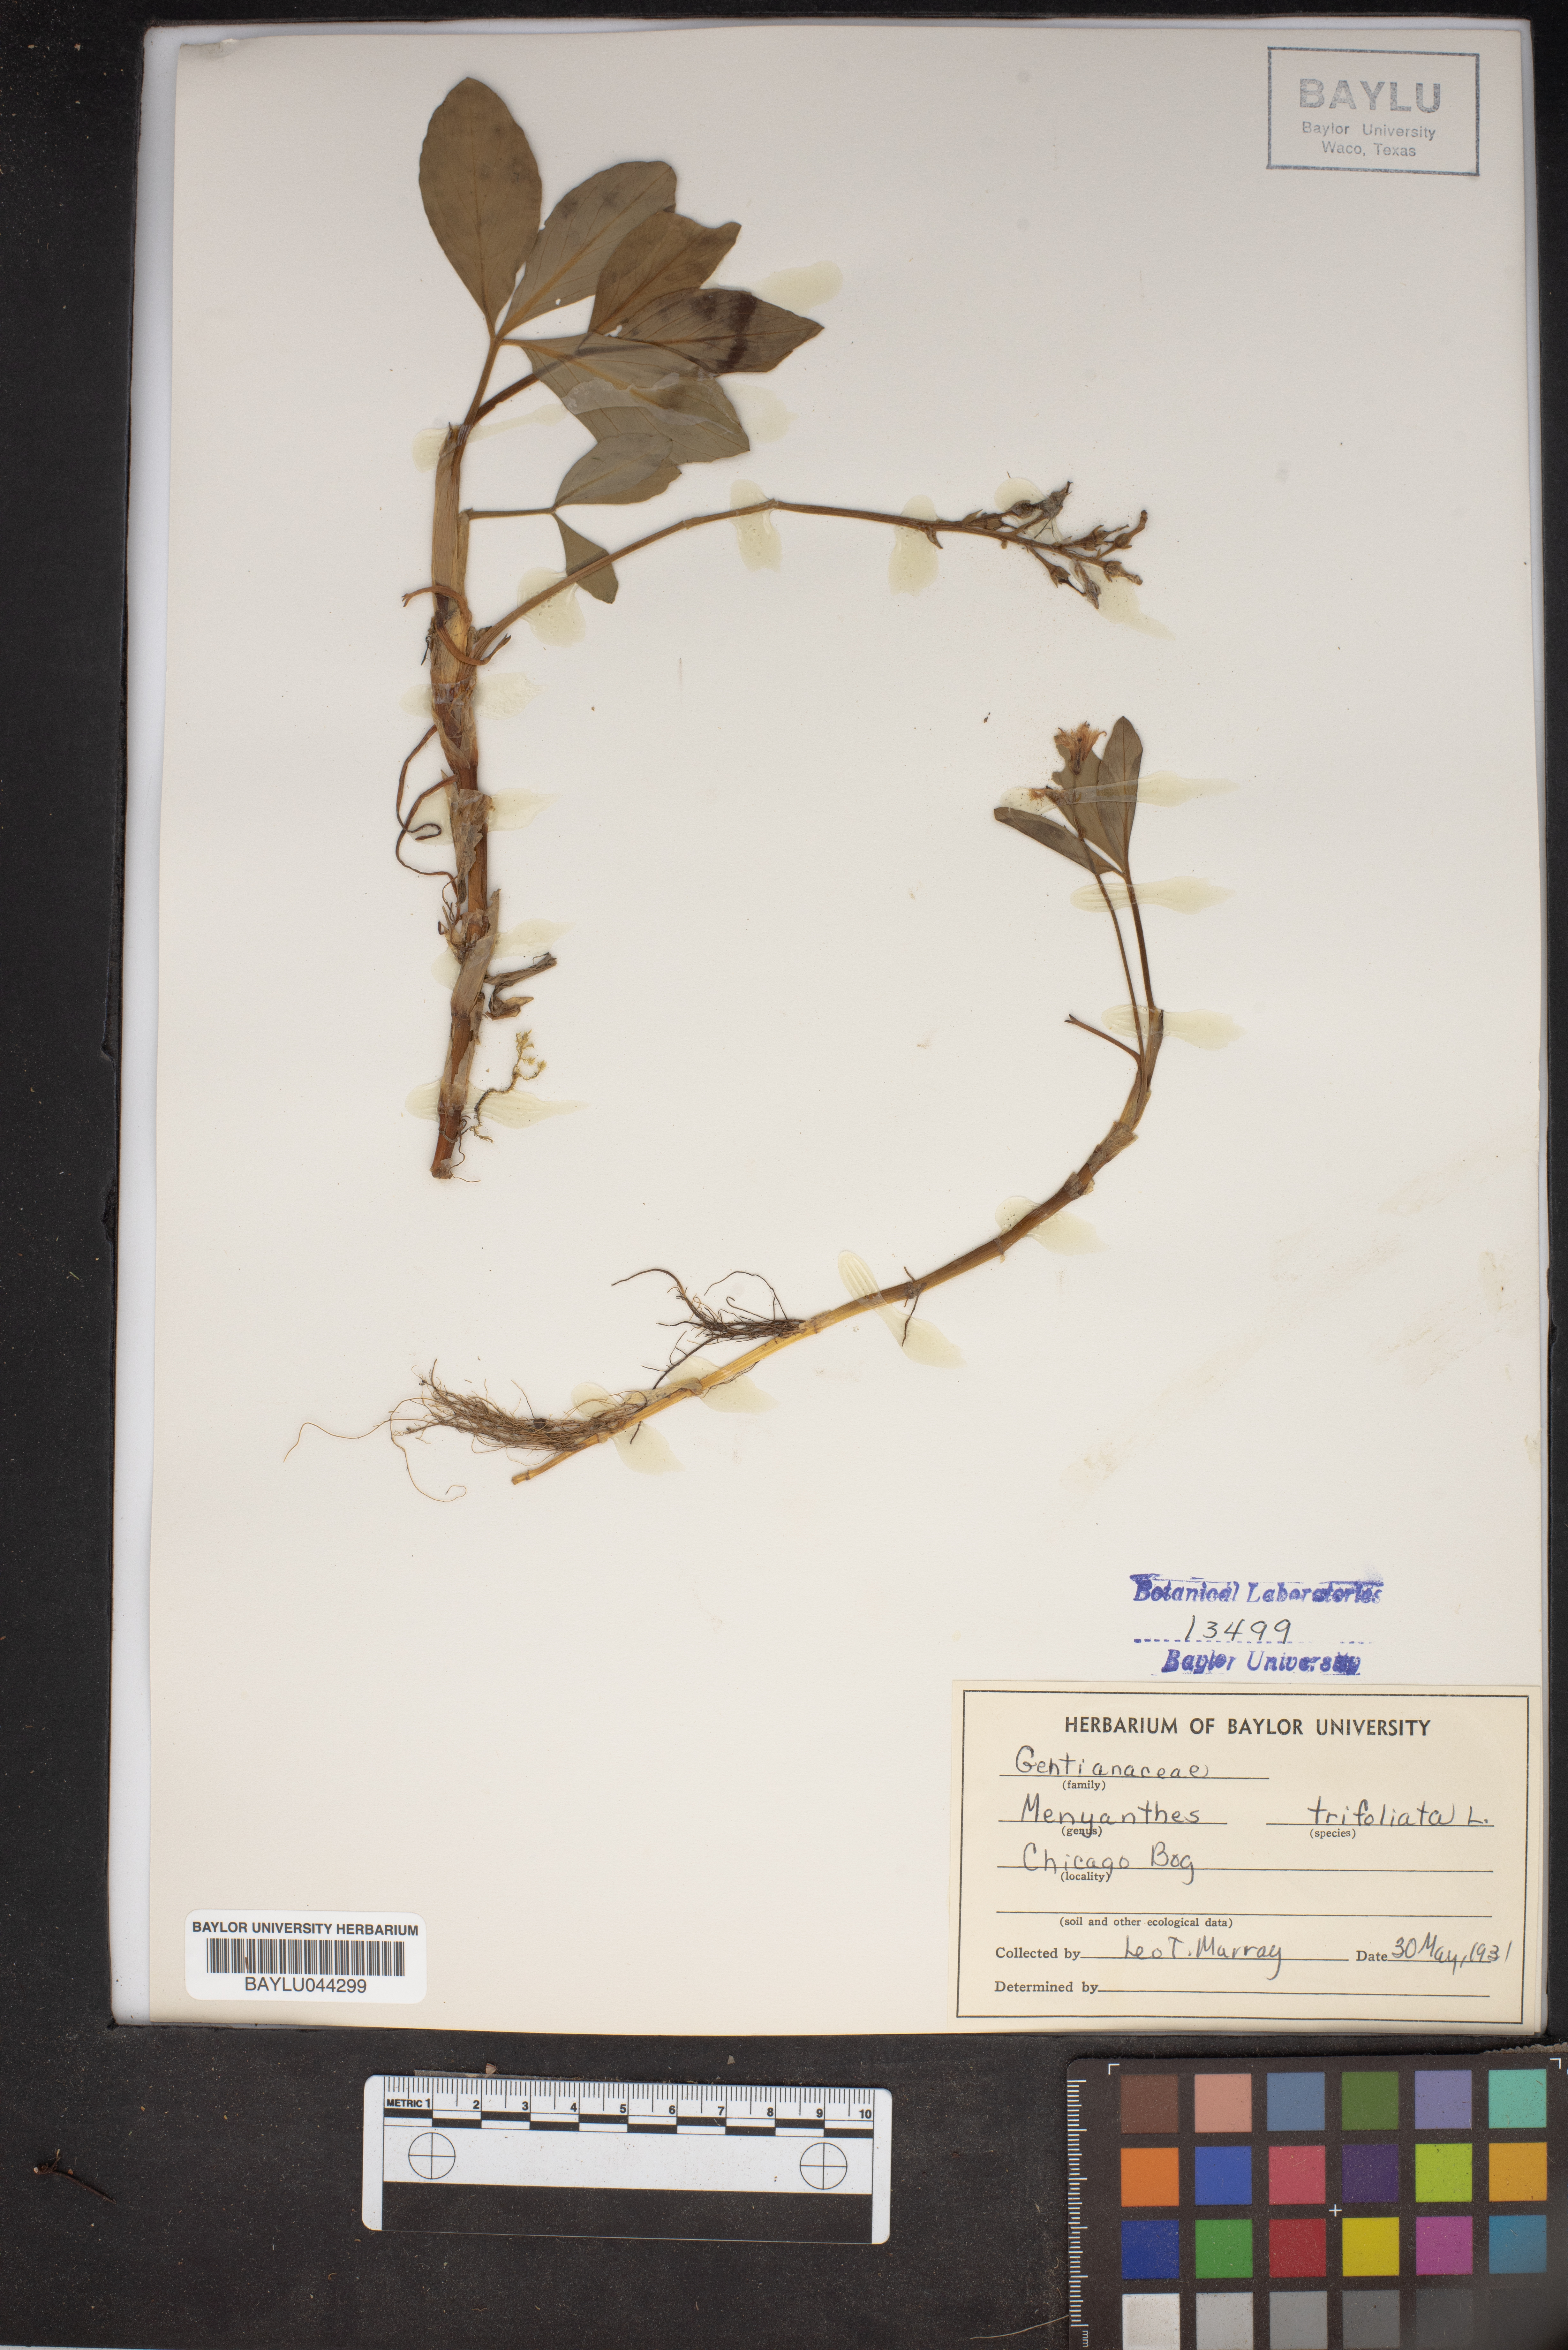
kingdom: Plantae
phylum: Tracheophyta
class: Magnoliopsida
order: Asterales
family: Menyanthaceae
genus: Menyanthes
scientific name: Menyanthes trifoliata
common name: Bogbean
